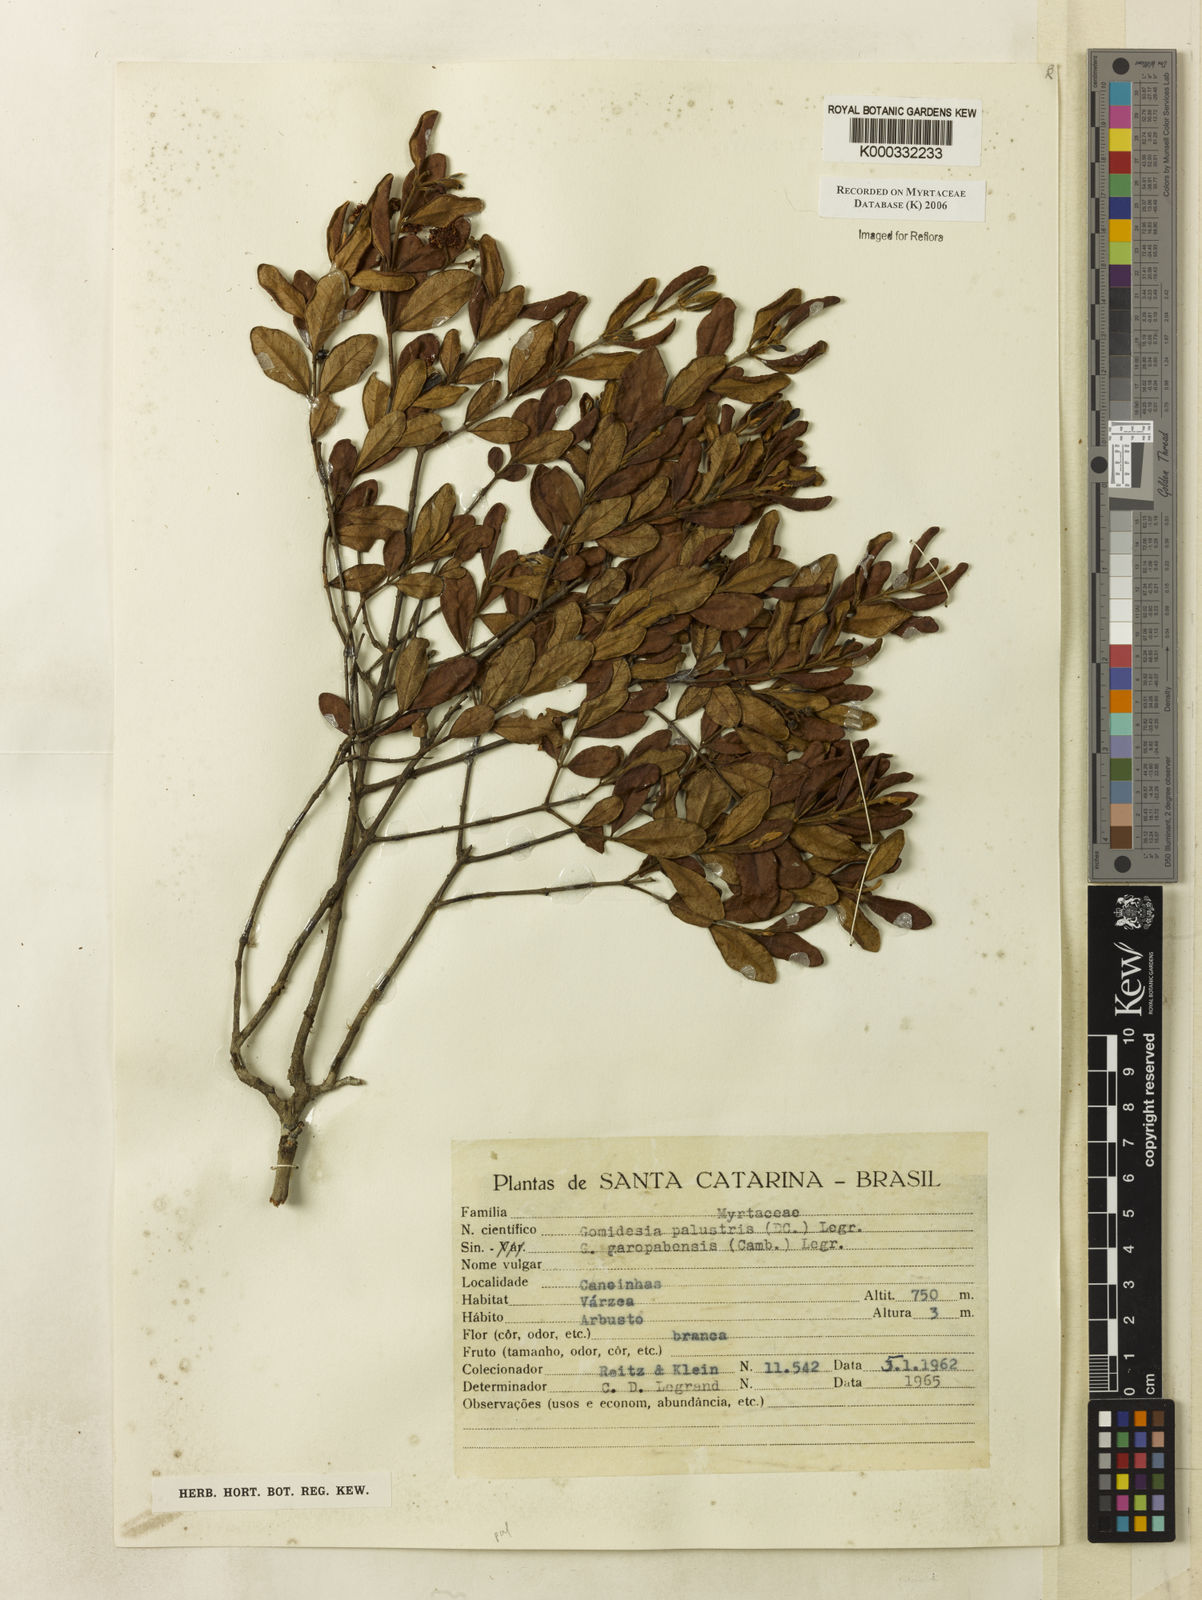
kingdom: Plantae
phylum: Tracheophyta
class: Magnoliopsida
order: Myrtales
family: Myrtaceae
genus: Myrcia
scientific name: Myrcia palustris
